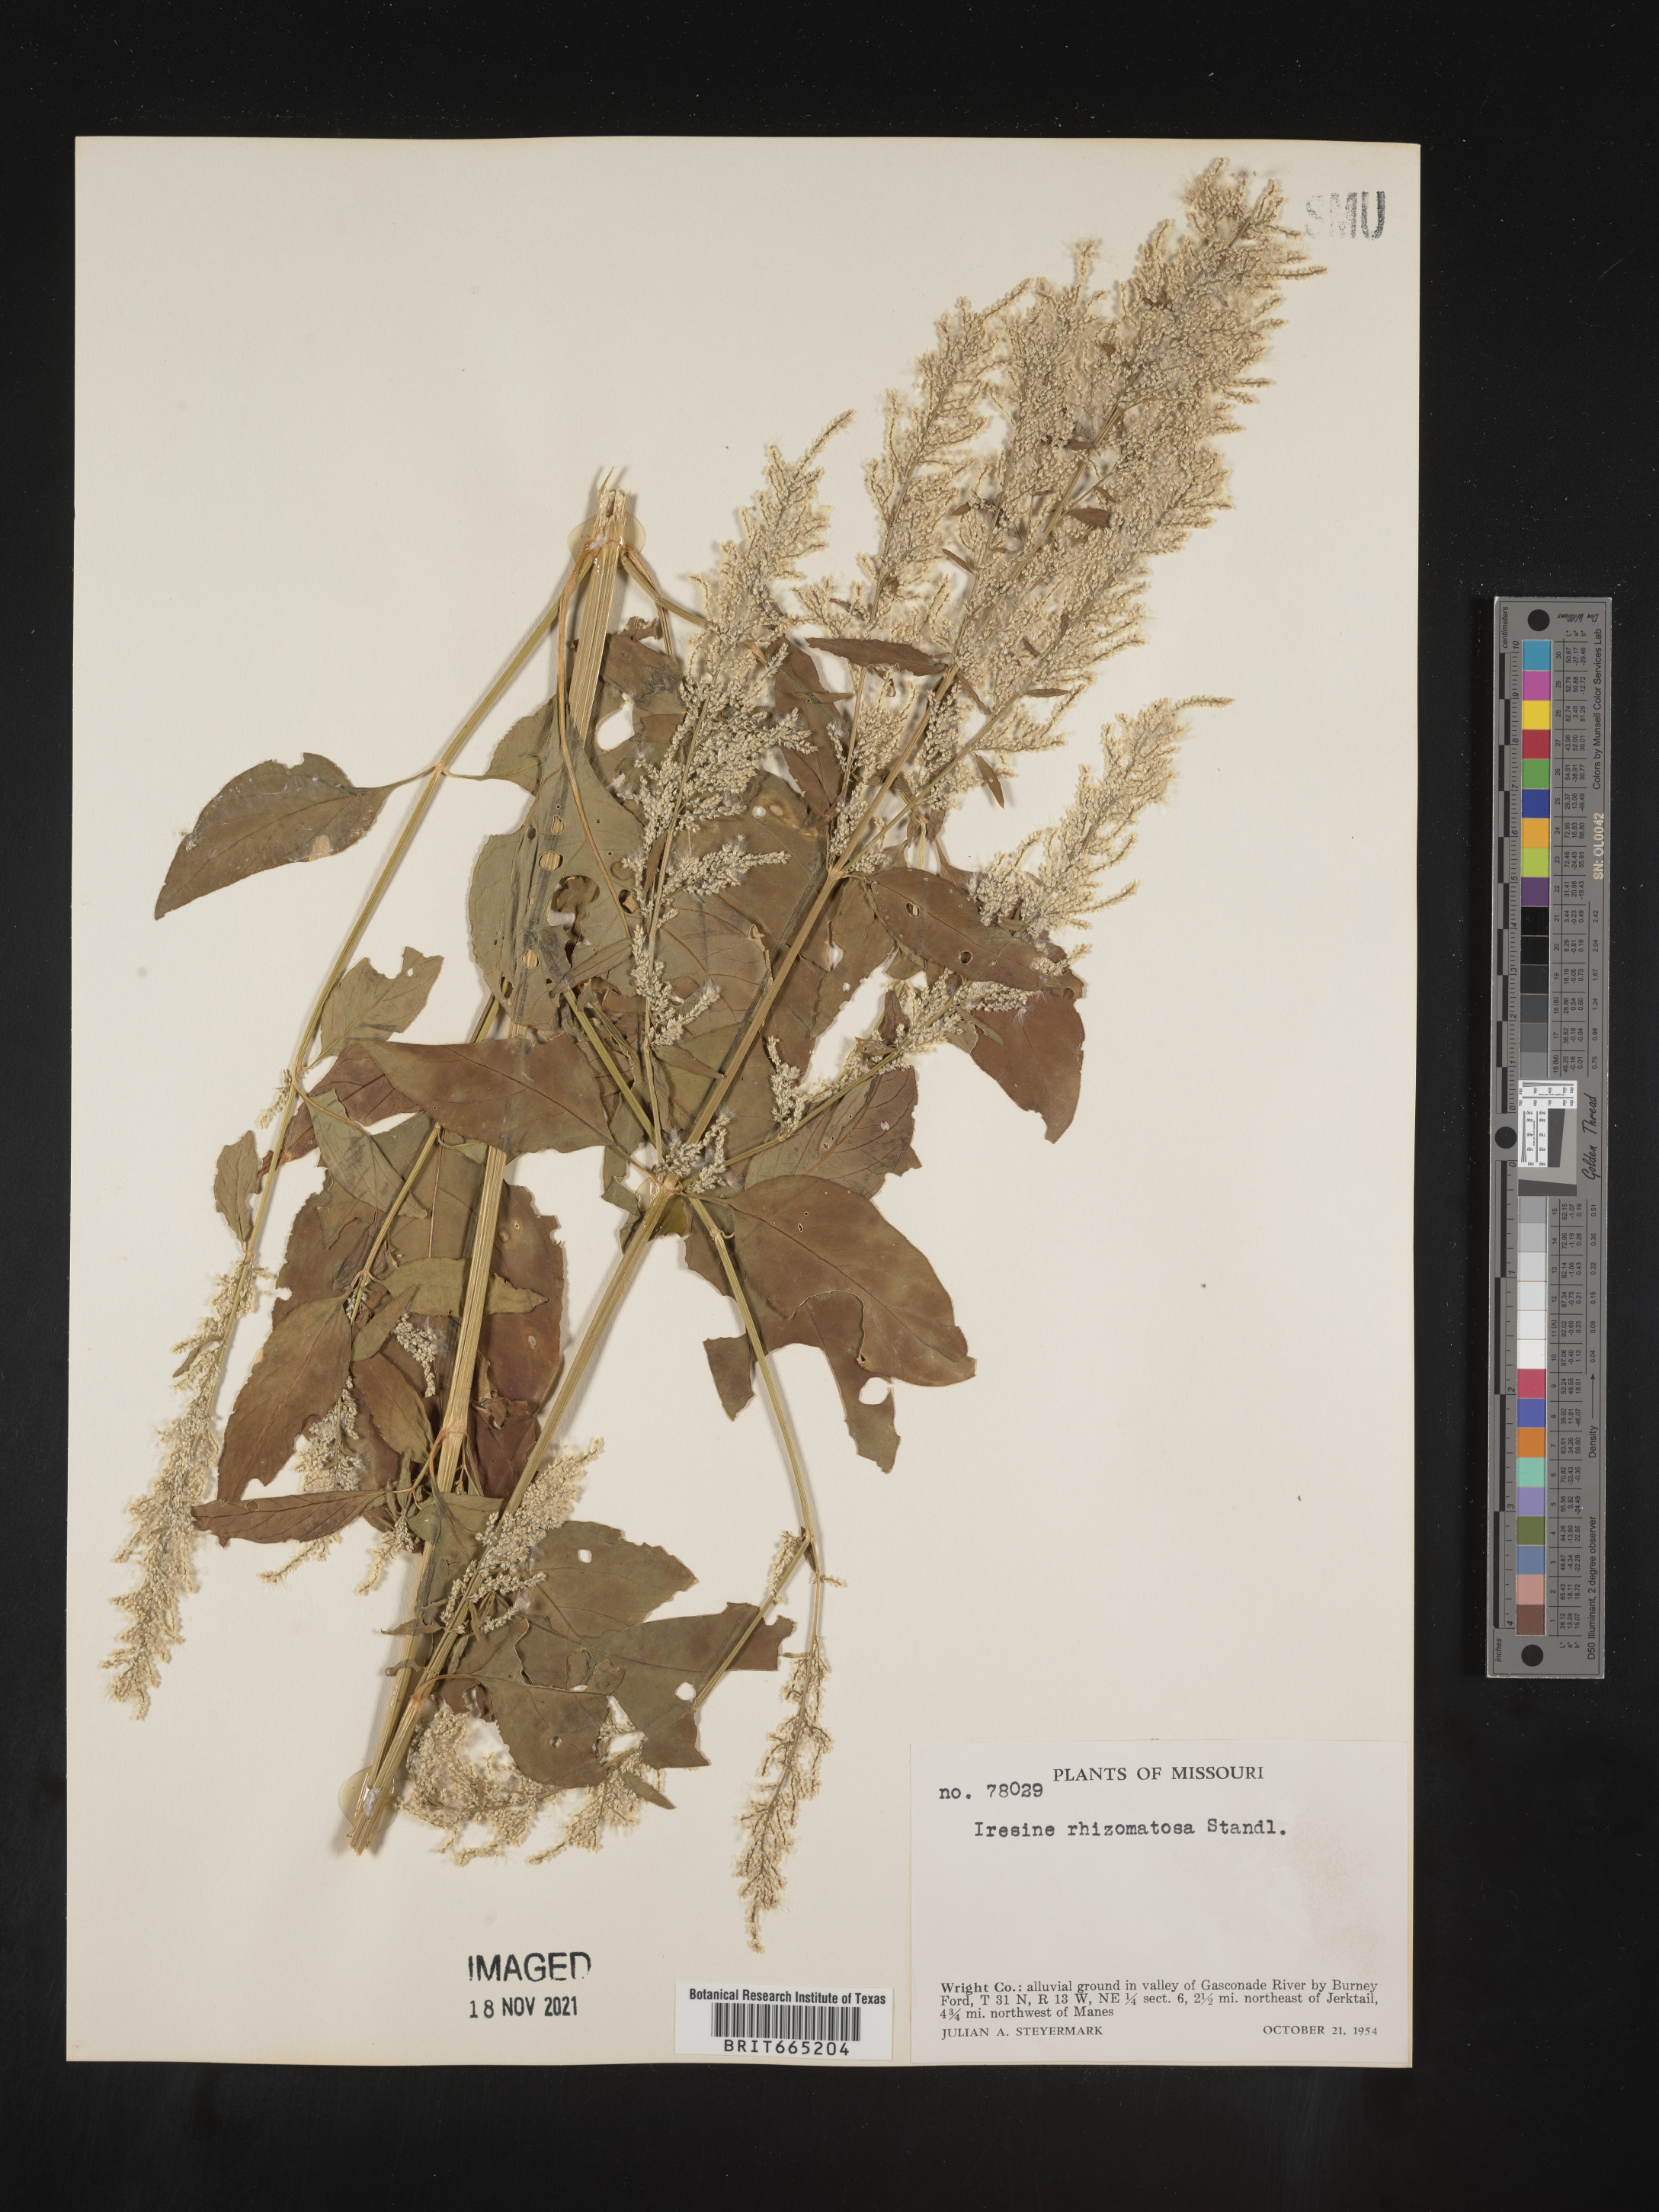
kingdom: Plantae
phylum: Tracheophyta
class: Magnoliopsida
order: Caryophyllales
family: Amaranthaceae
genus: Iresine
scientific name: Iresine rhizomatosa
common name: Juda's-bush
